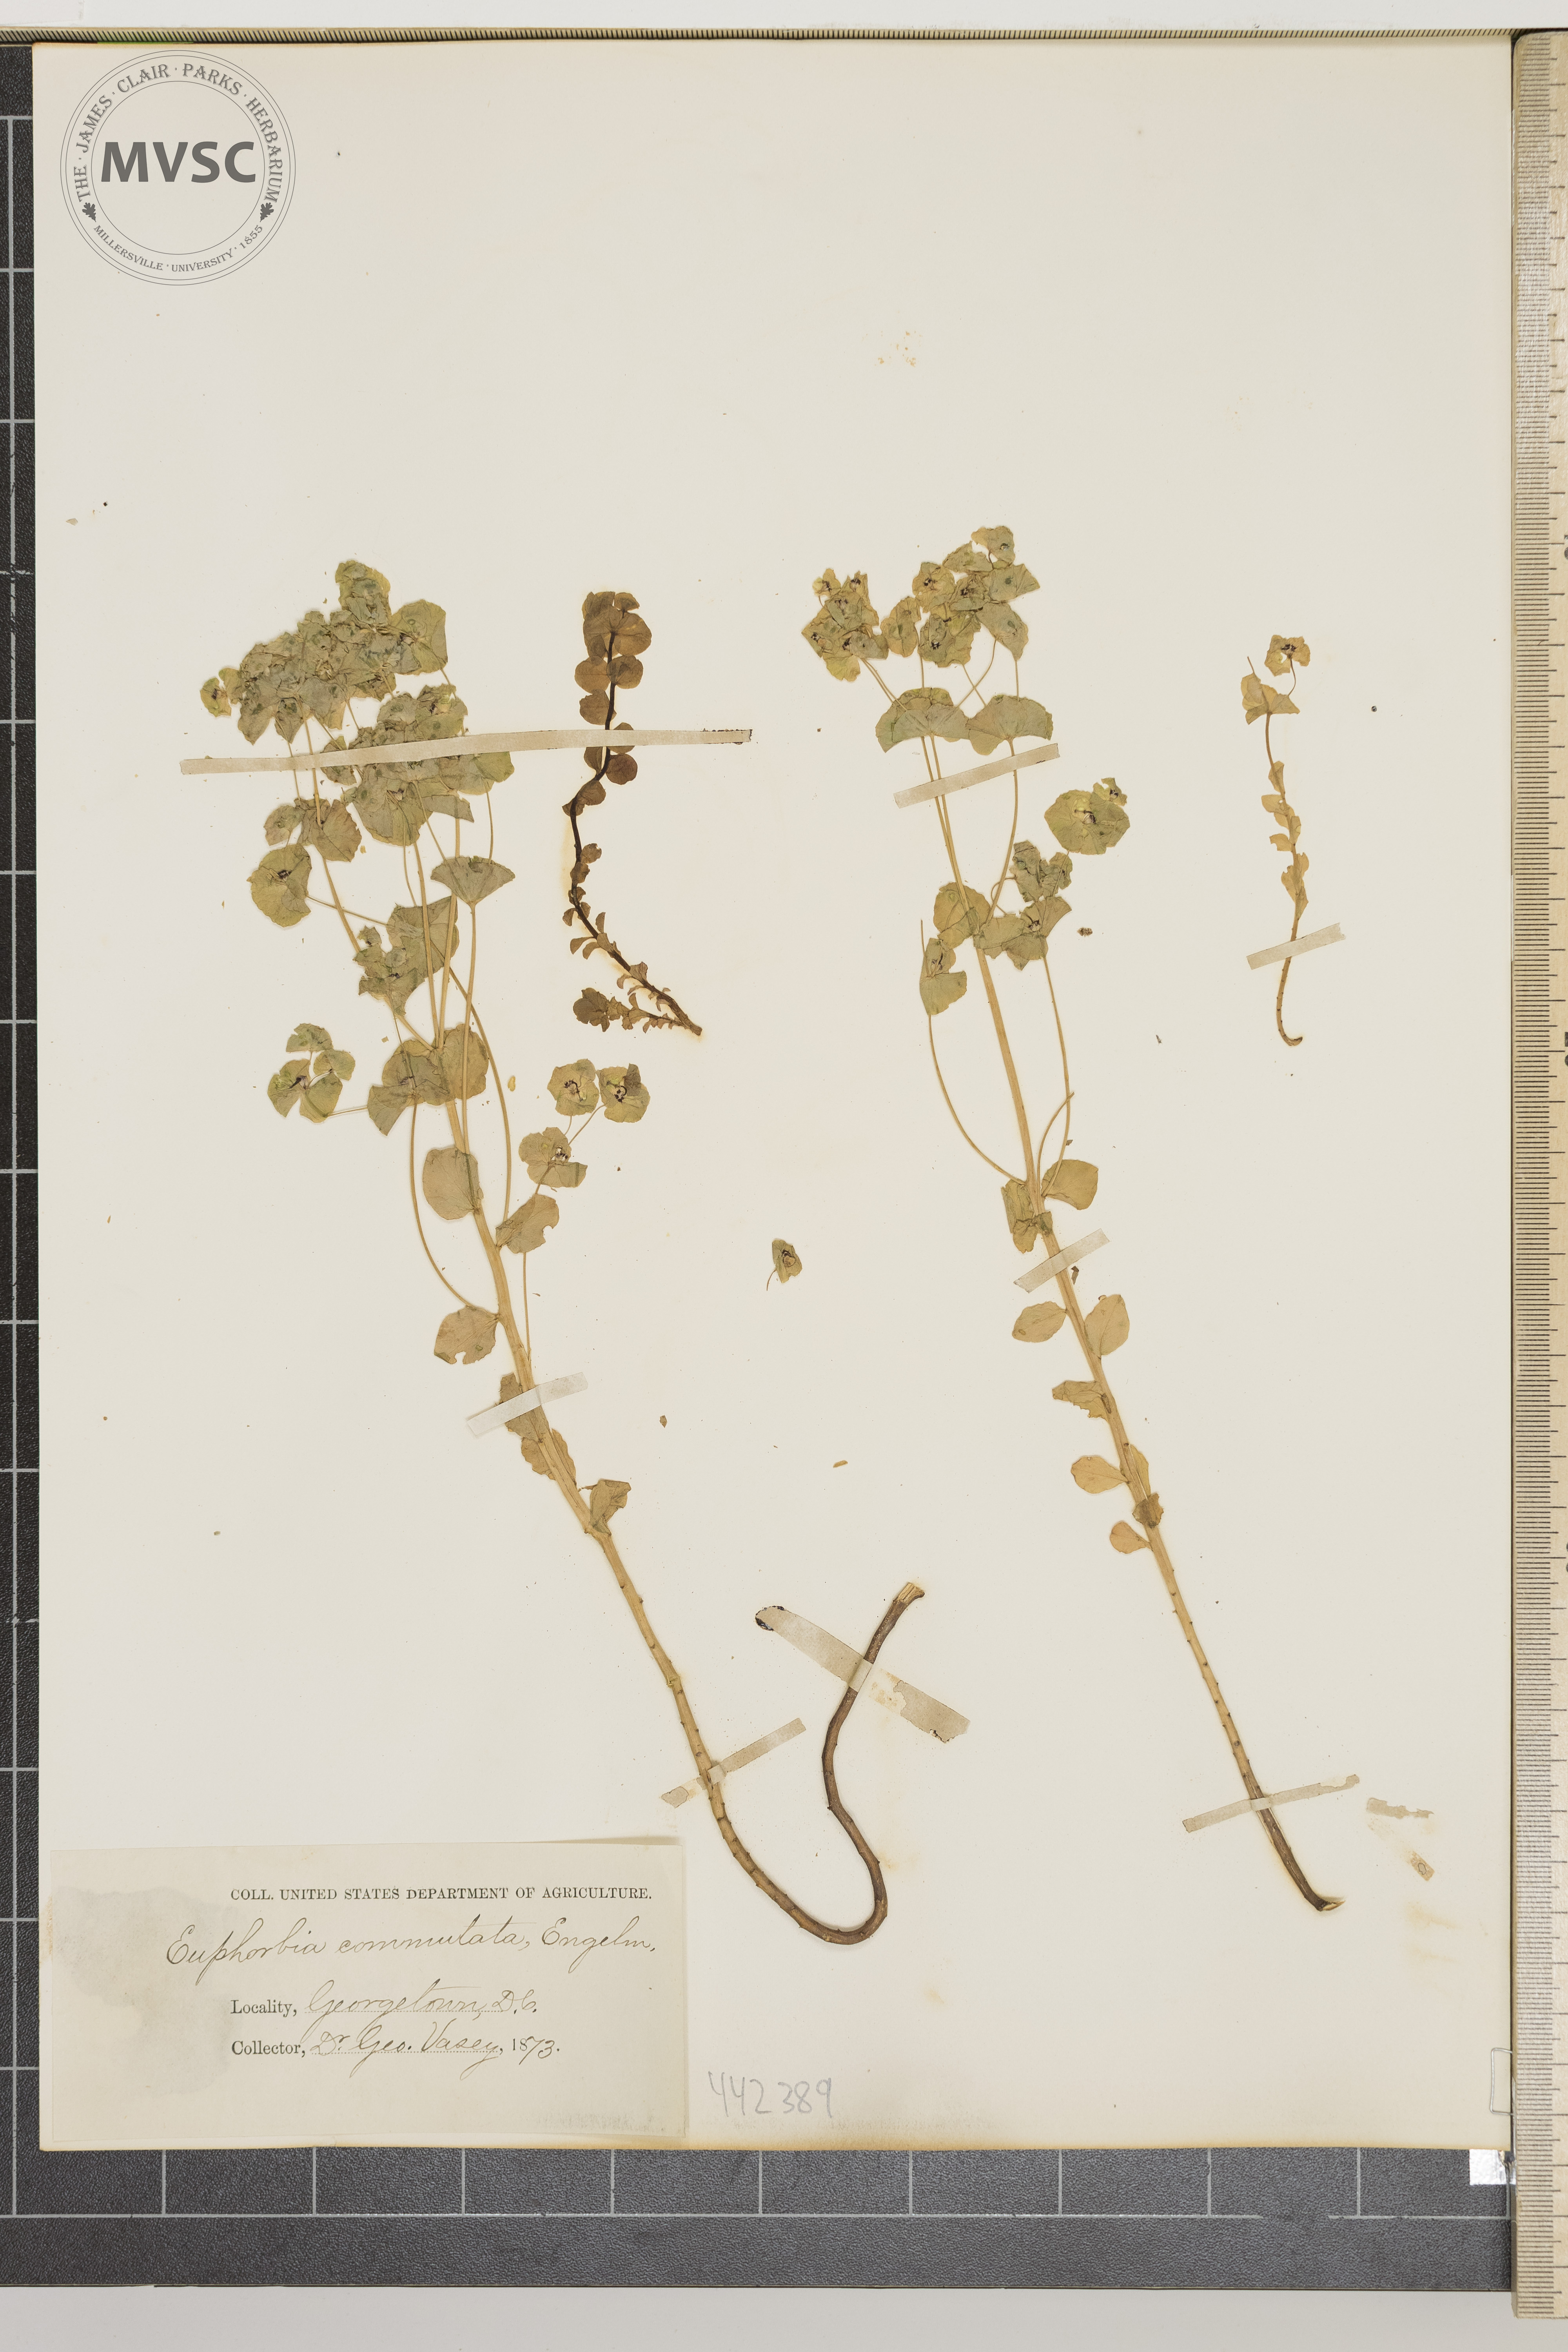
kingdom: Plantae
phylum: Tracheophyta
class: Magnoliopsida
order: Malpighiales
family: Euphorbiaceae
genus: Euphorbia
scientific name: Euphorbia commutata
